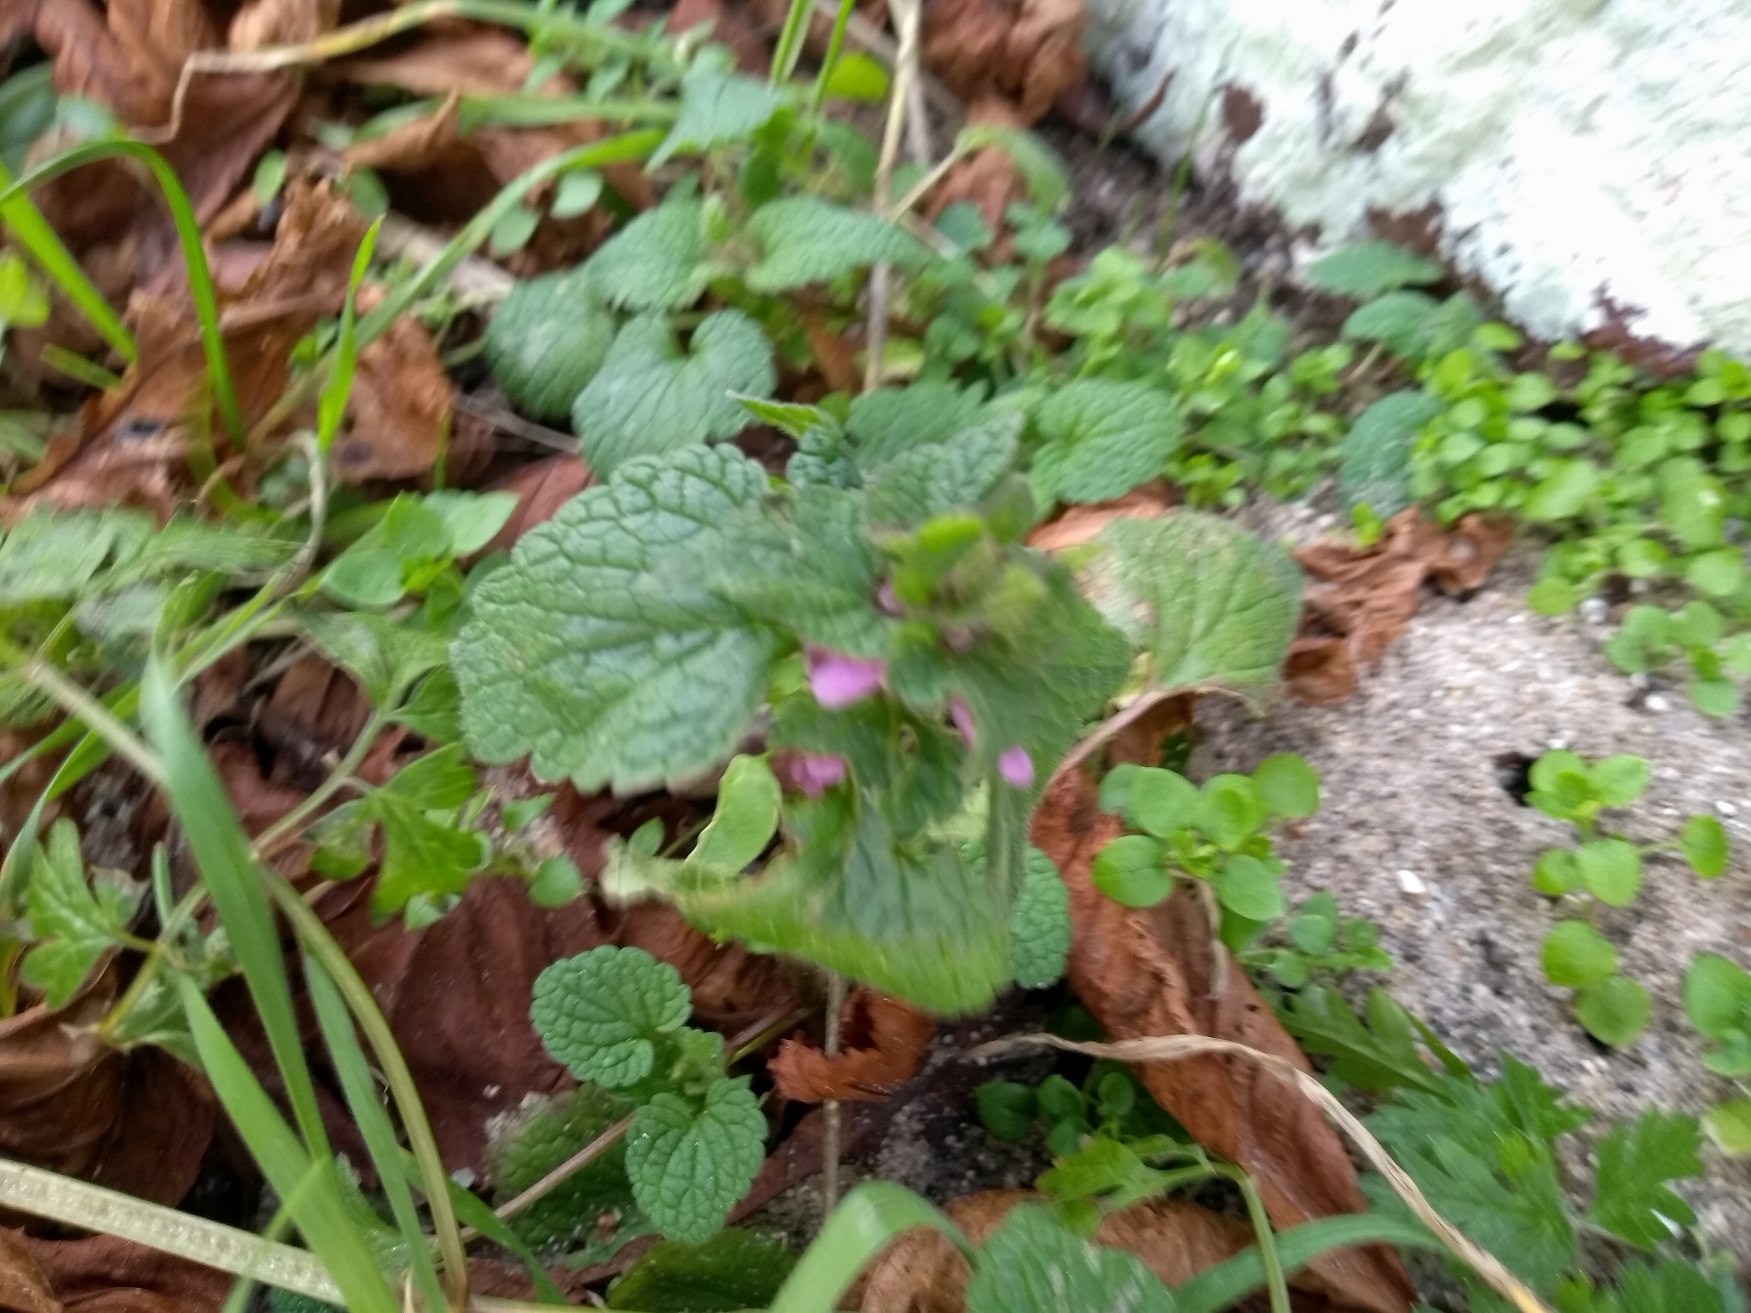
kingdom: Plantae
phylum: Tracheophyta
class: Magnoliopsida
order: Lamiales
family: Lamiaceae
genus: Lamium
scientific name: Lamium purpureum
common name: Rød tvetand
